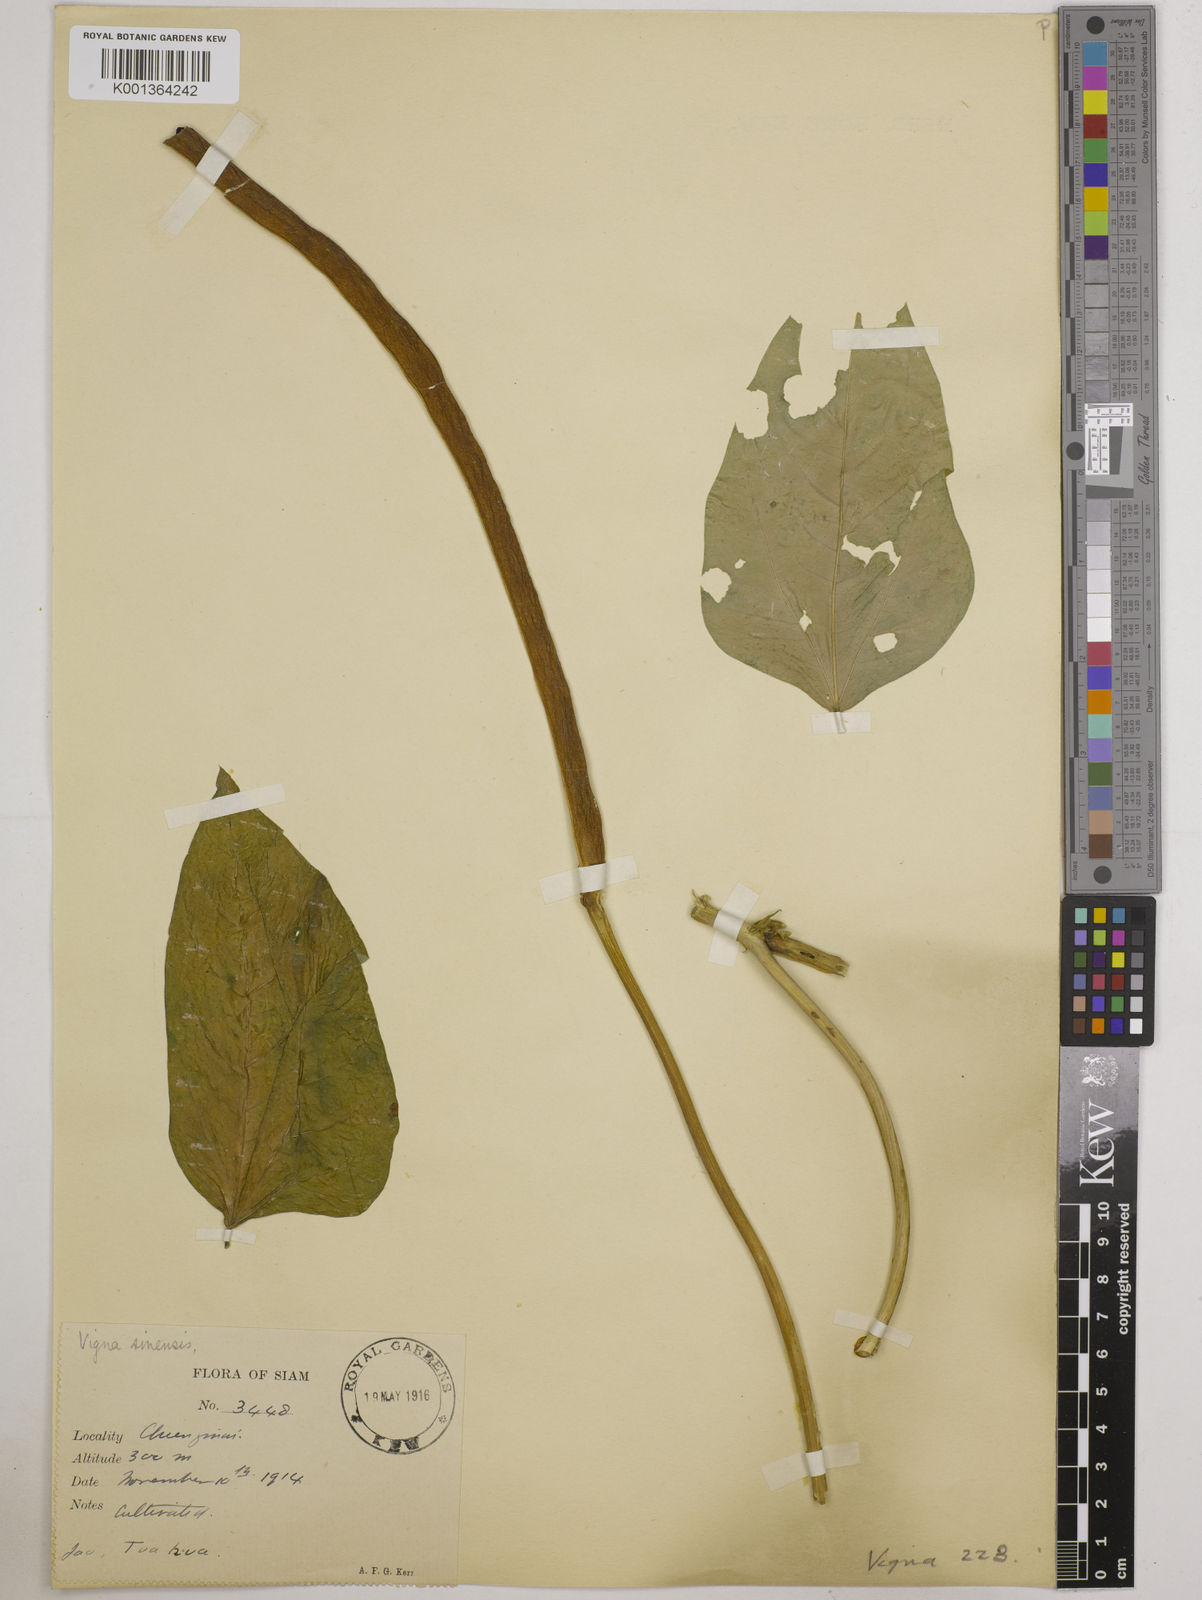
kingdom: Plantae
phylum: Tracheophyta
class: Magnoliopsida
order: Fabales
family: Fabaceae
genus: Vigna
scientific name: Vigna unguiculata
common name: Cowpea
